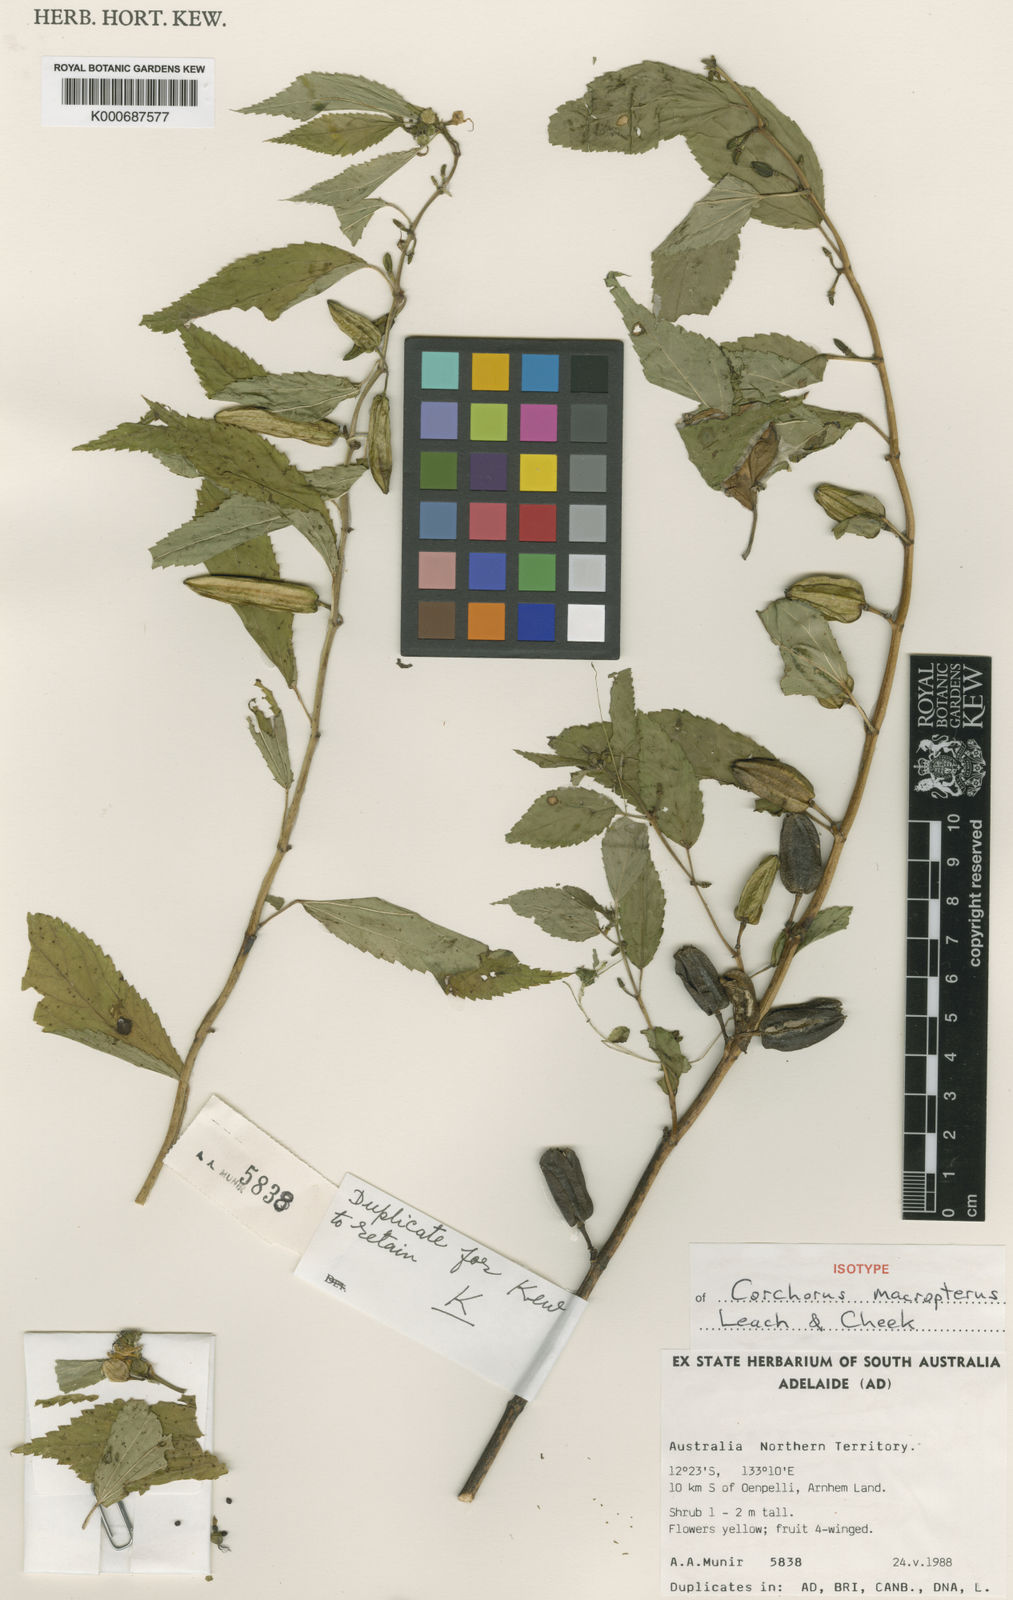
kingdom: Plantae
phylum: Tracheophyta
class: Magnoliopsida
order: Malvales
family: Malvaceae
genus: Corchorus
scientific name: Corchorus macropterus
